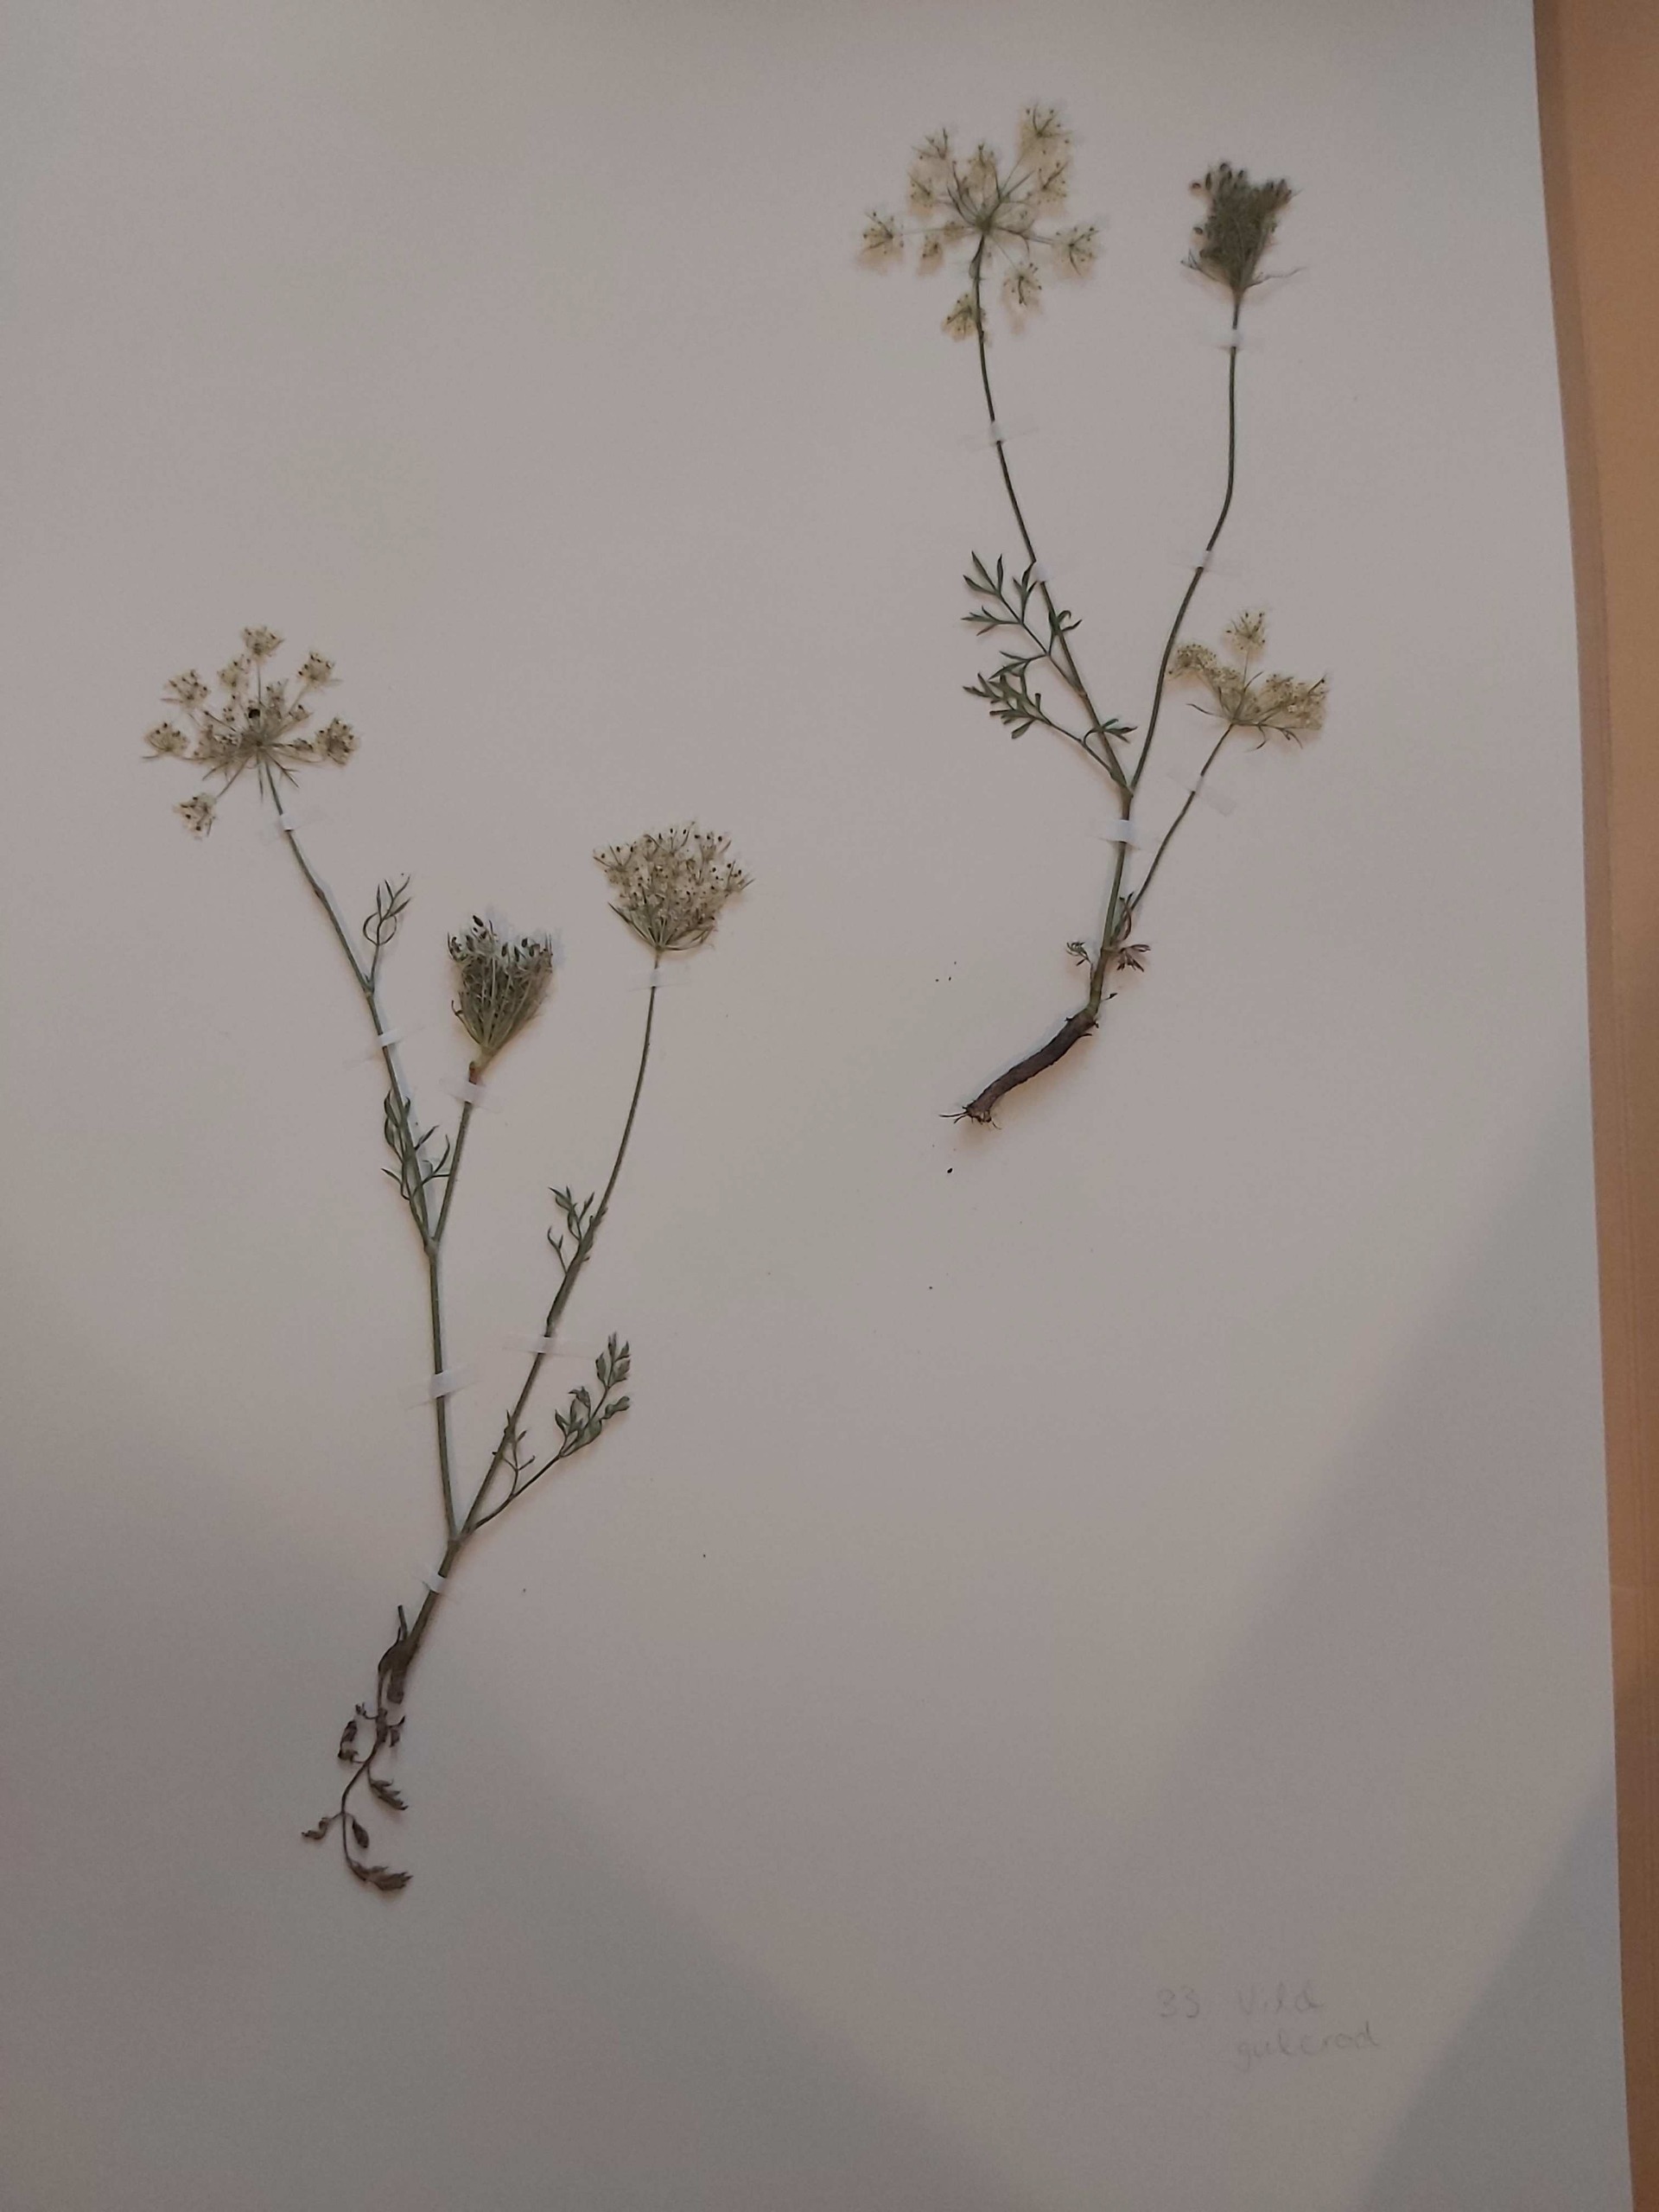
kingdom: Plantae
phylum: Tracheophyta
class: Magnoliopsida
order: Apiales
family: Apiaceae
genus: Daucus
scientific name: Daucus carota
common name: Gulerod
